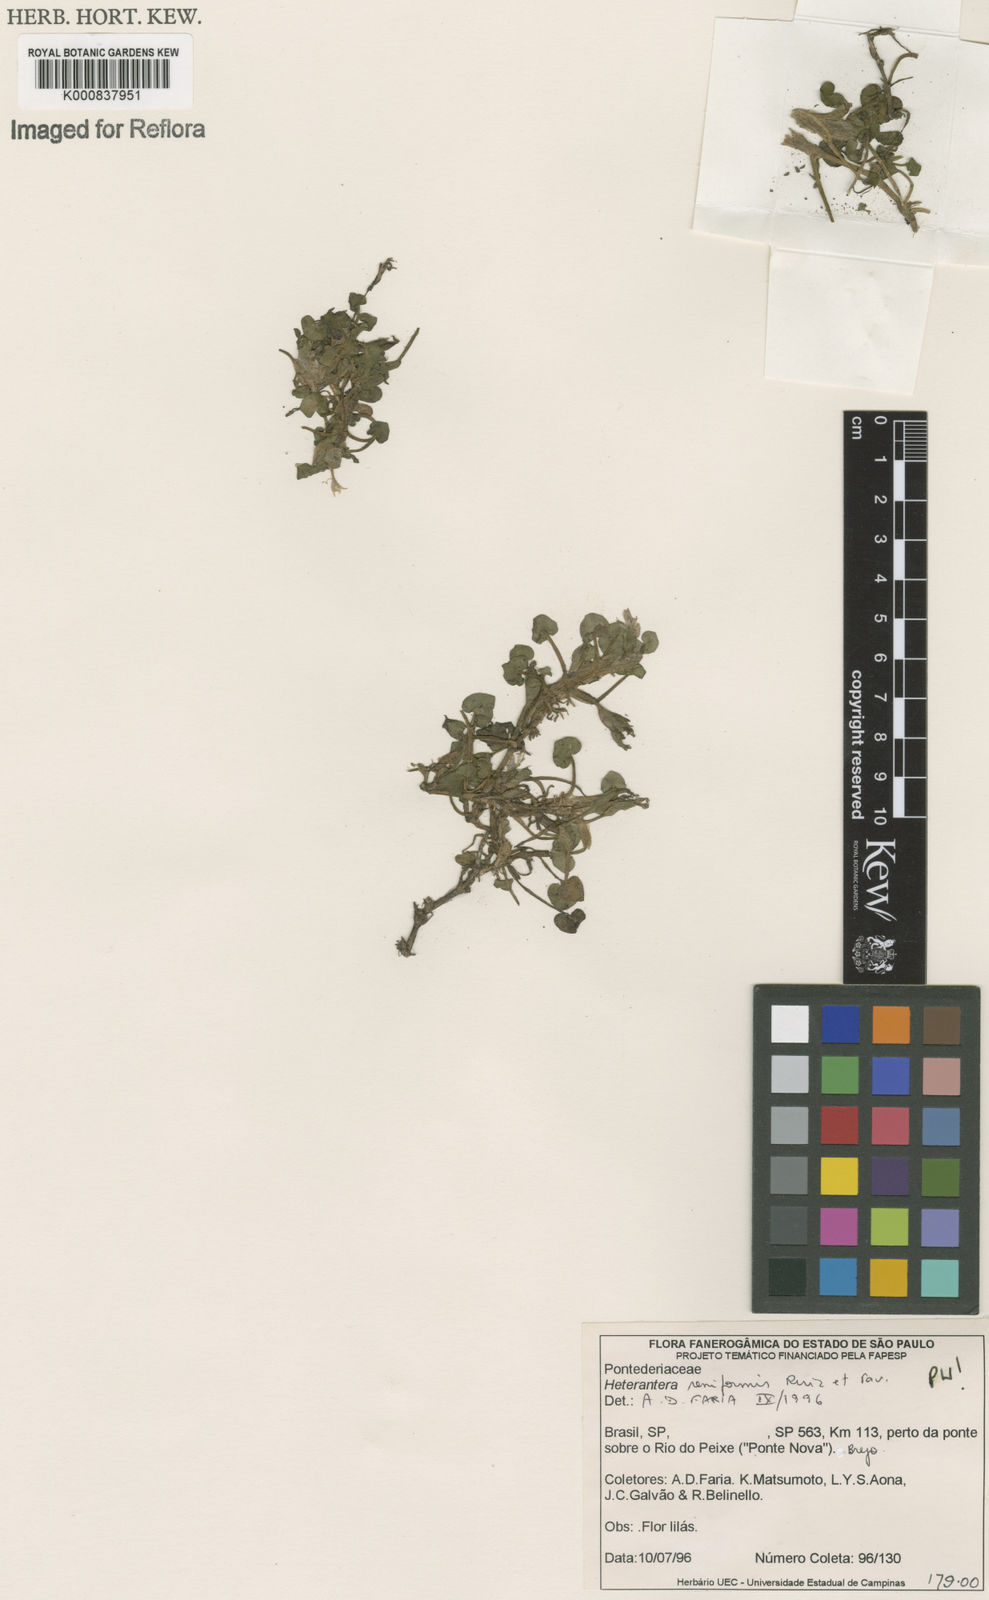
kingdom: Plantae
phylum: Tracheophyta
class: Liliopsida
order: Commelinales
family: Pontederiaceae
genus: Heteranthera
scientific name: Heteranthera reniformis
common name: Kidneyleaf mudplantain
